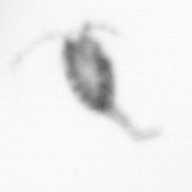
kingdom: Animalia
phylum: Annelida
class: Polychaeta
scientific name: Polychaeta
